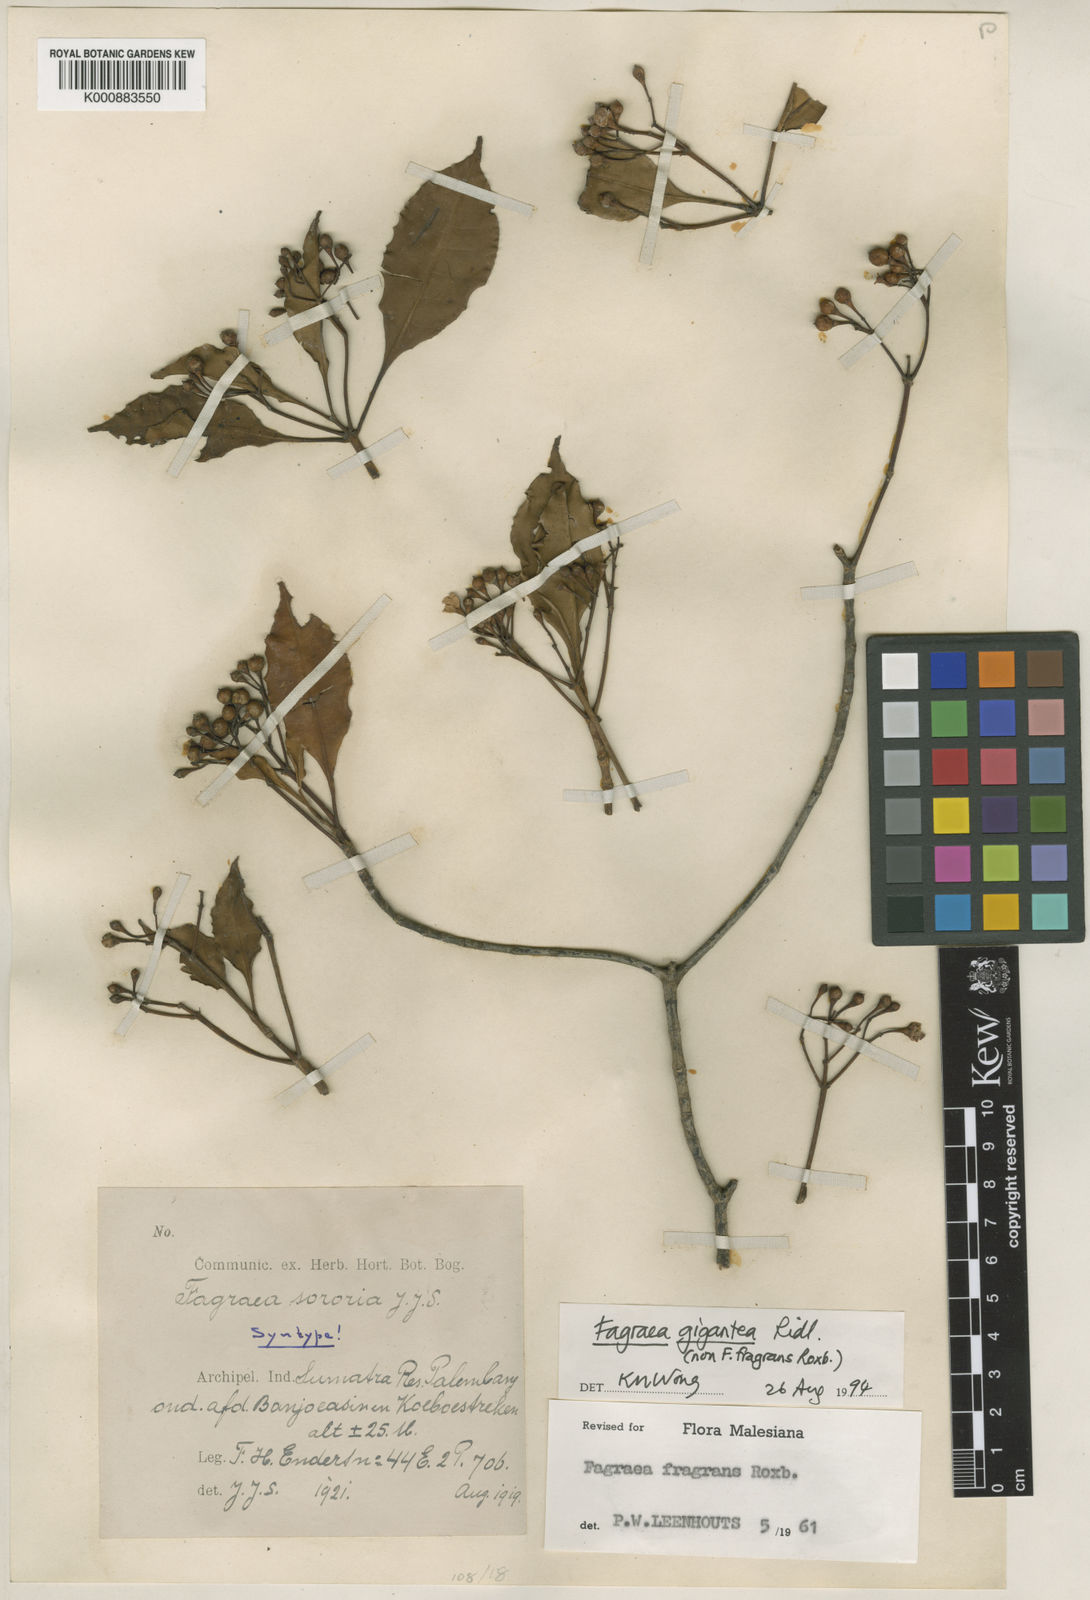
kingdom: Plantae
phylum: Tracheophyta
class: Magnoliopsida
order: Gentianales
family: Gentianaceae
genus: Cyrtophyllum
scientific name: Cyrtophyllum fragrans
